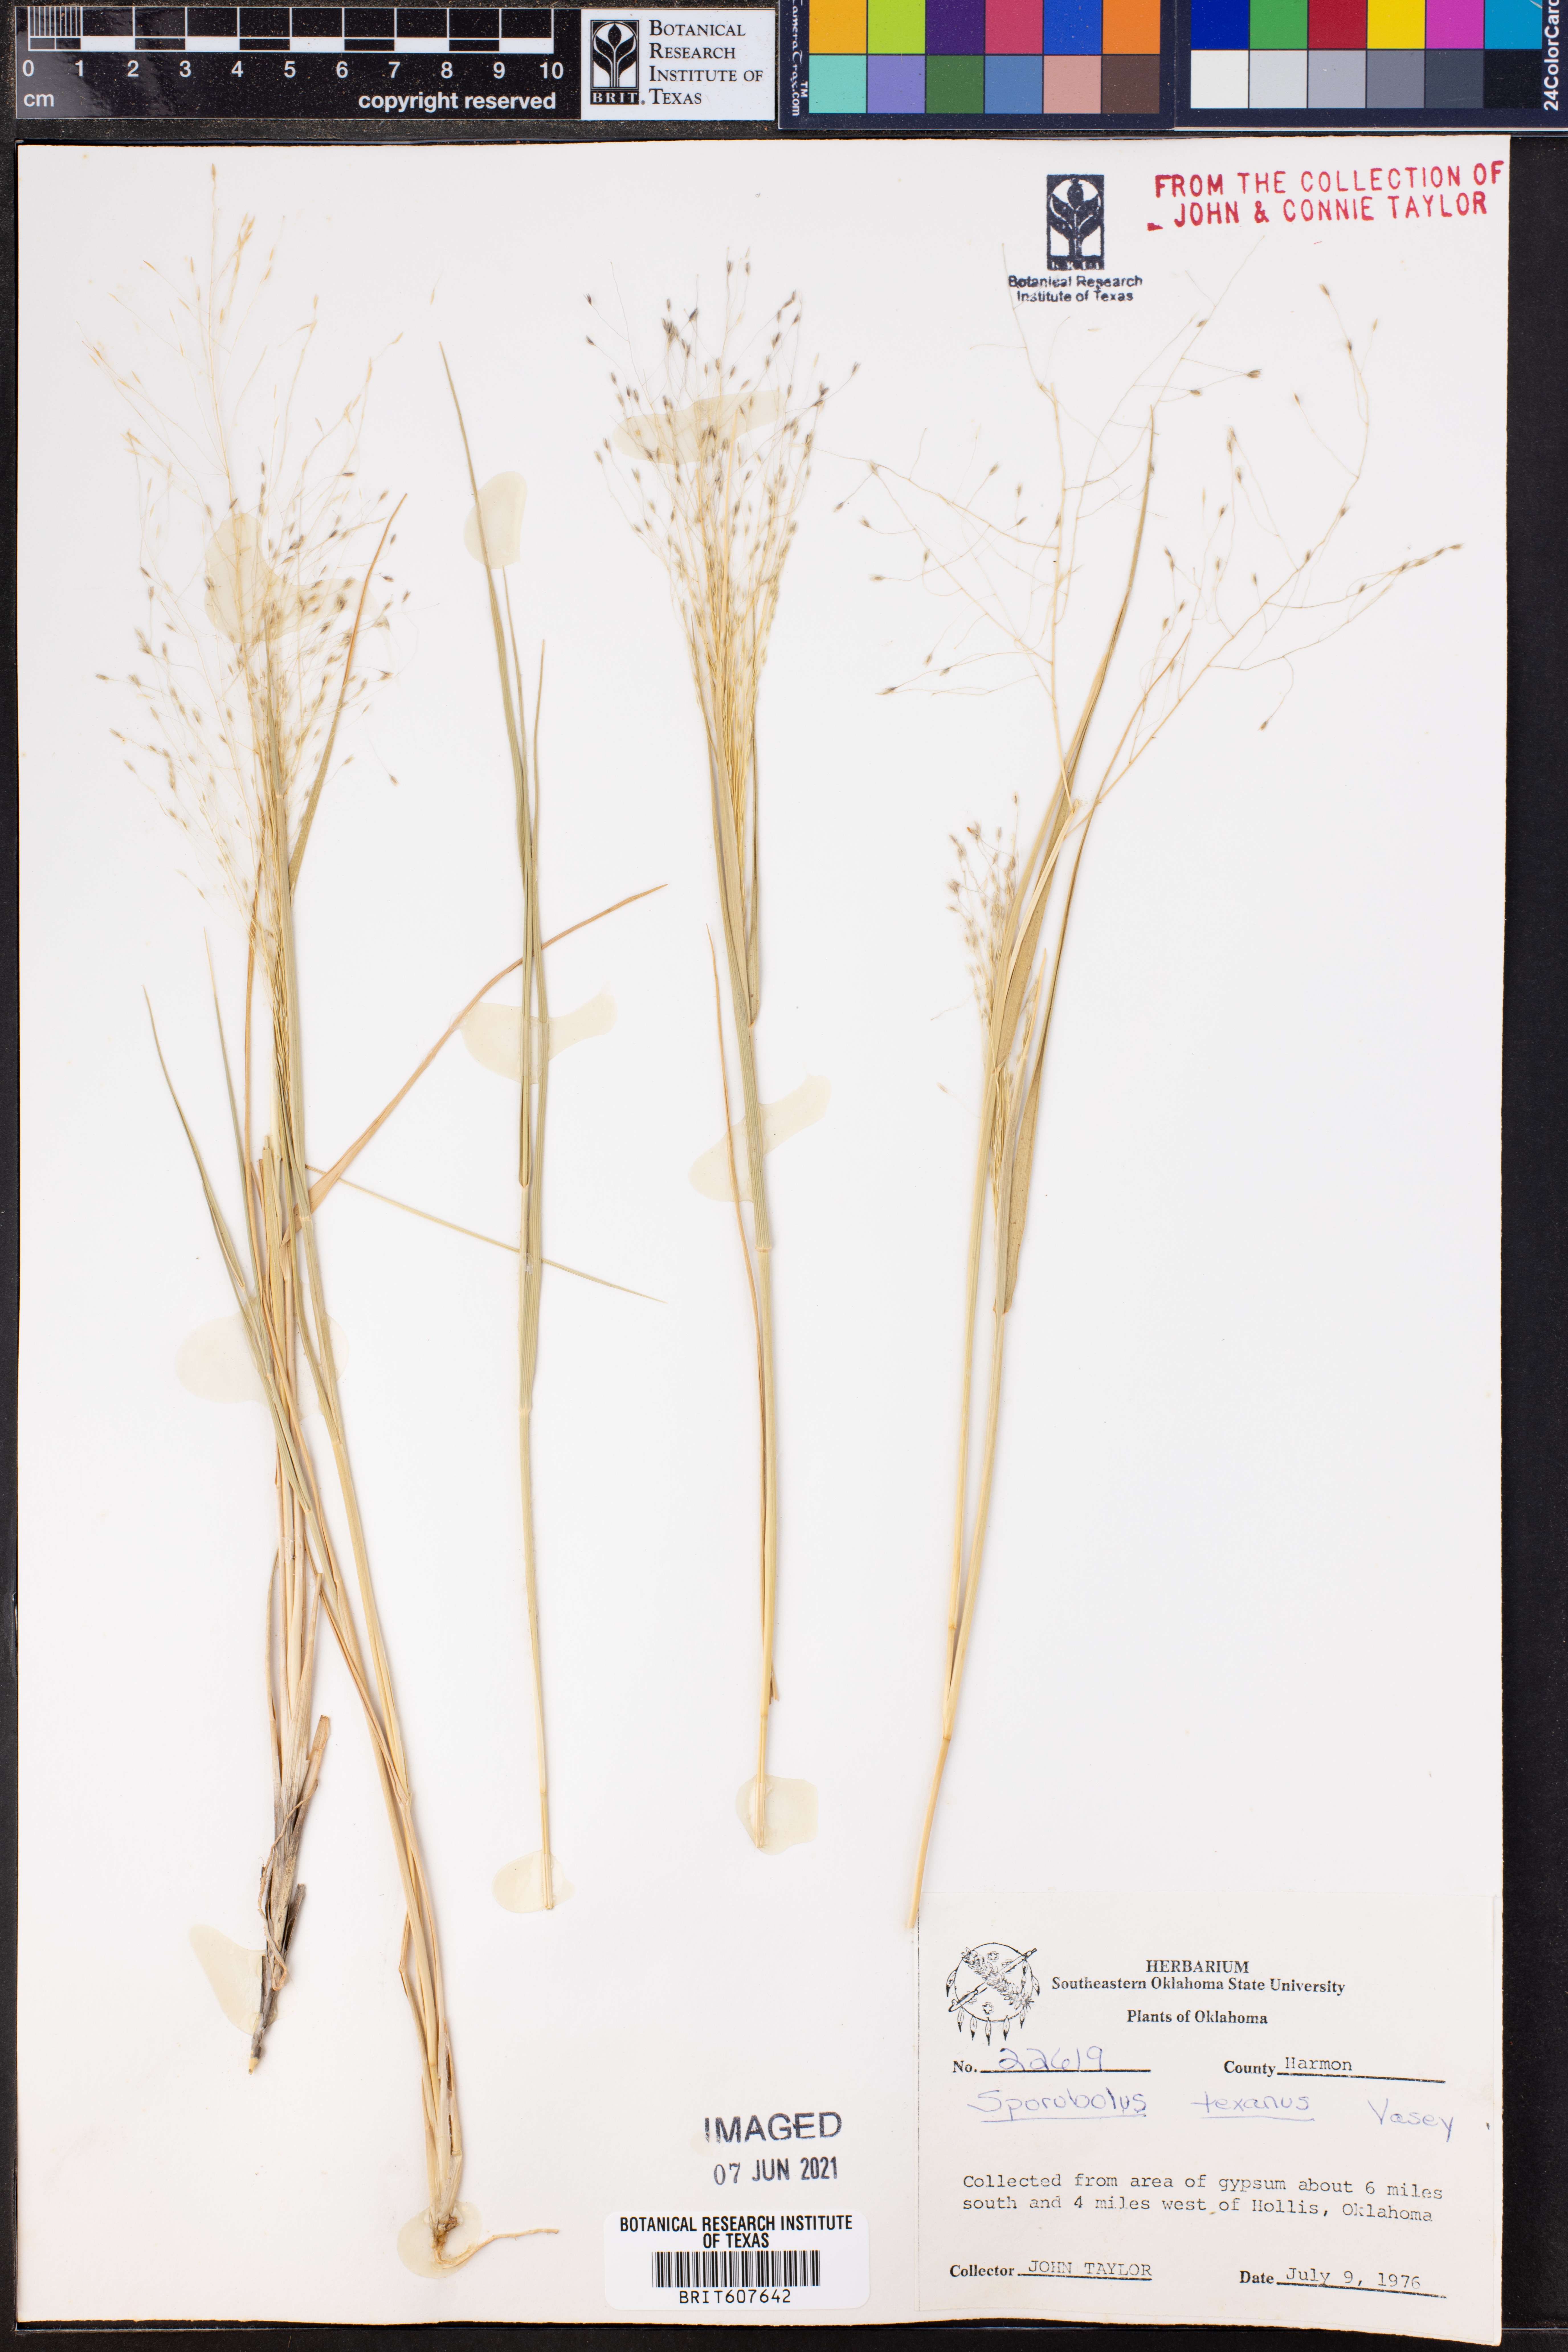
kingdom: Plantae
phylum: Tracheophyta
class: Liliopsida
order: Poales
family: Poaceae
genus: Sporobolus
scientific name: Sporobolus texanus
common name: Texas dropseed
